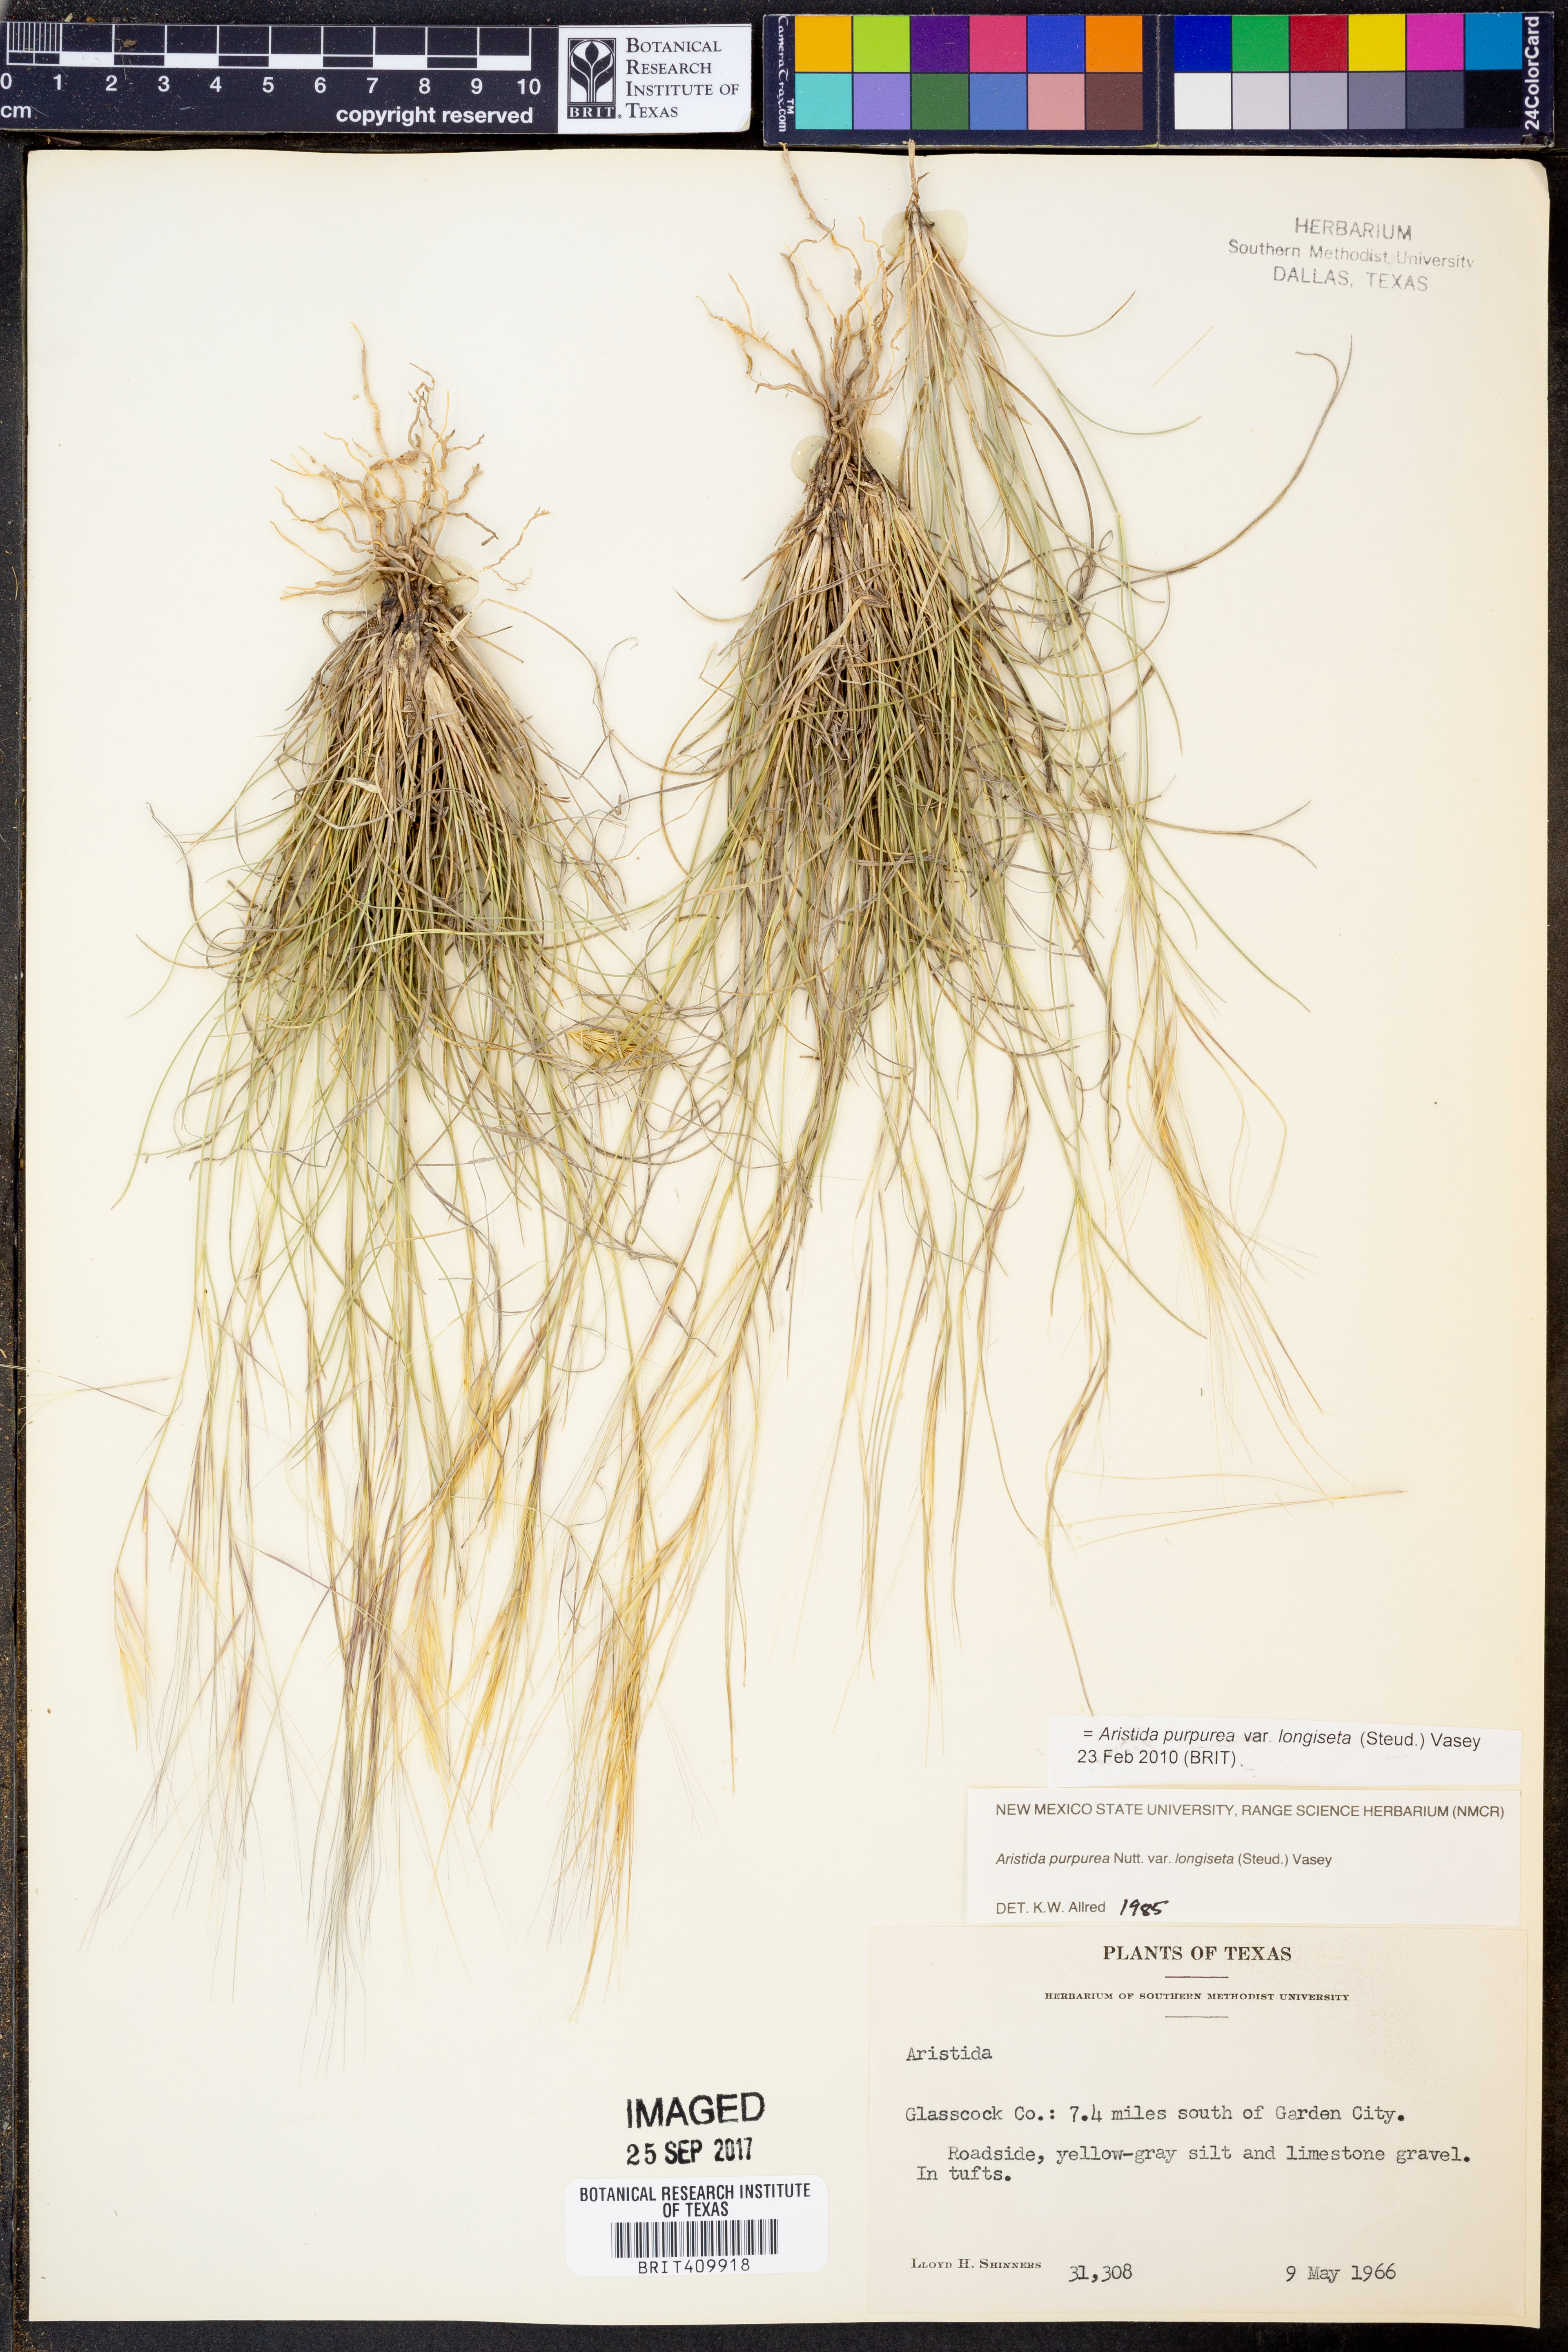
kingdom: Plantae
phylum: Tracheophyta
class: Liliopsida
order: Poales
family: Poaceae
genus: Aristida
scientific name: Aristida longiseta
